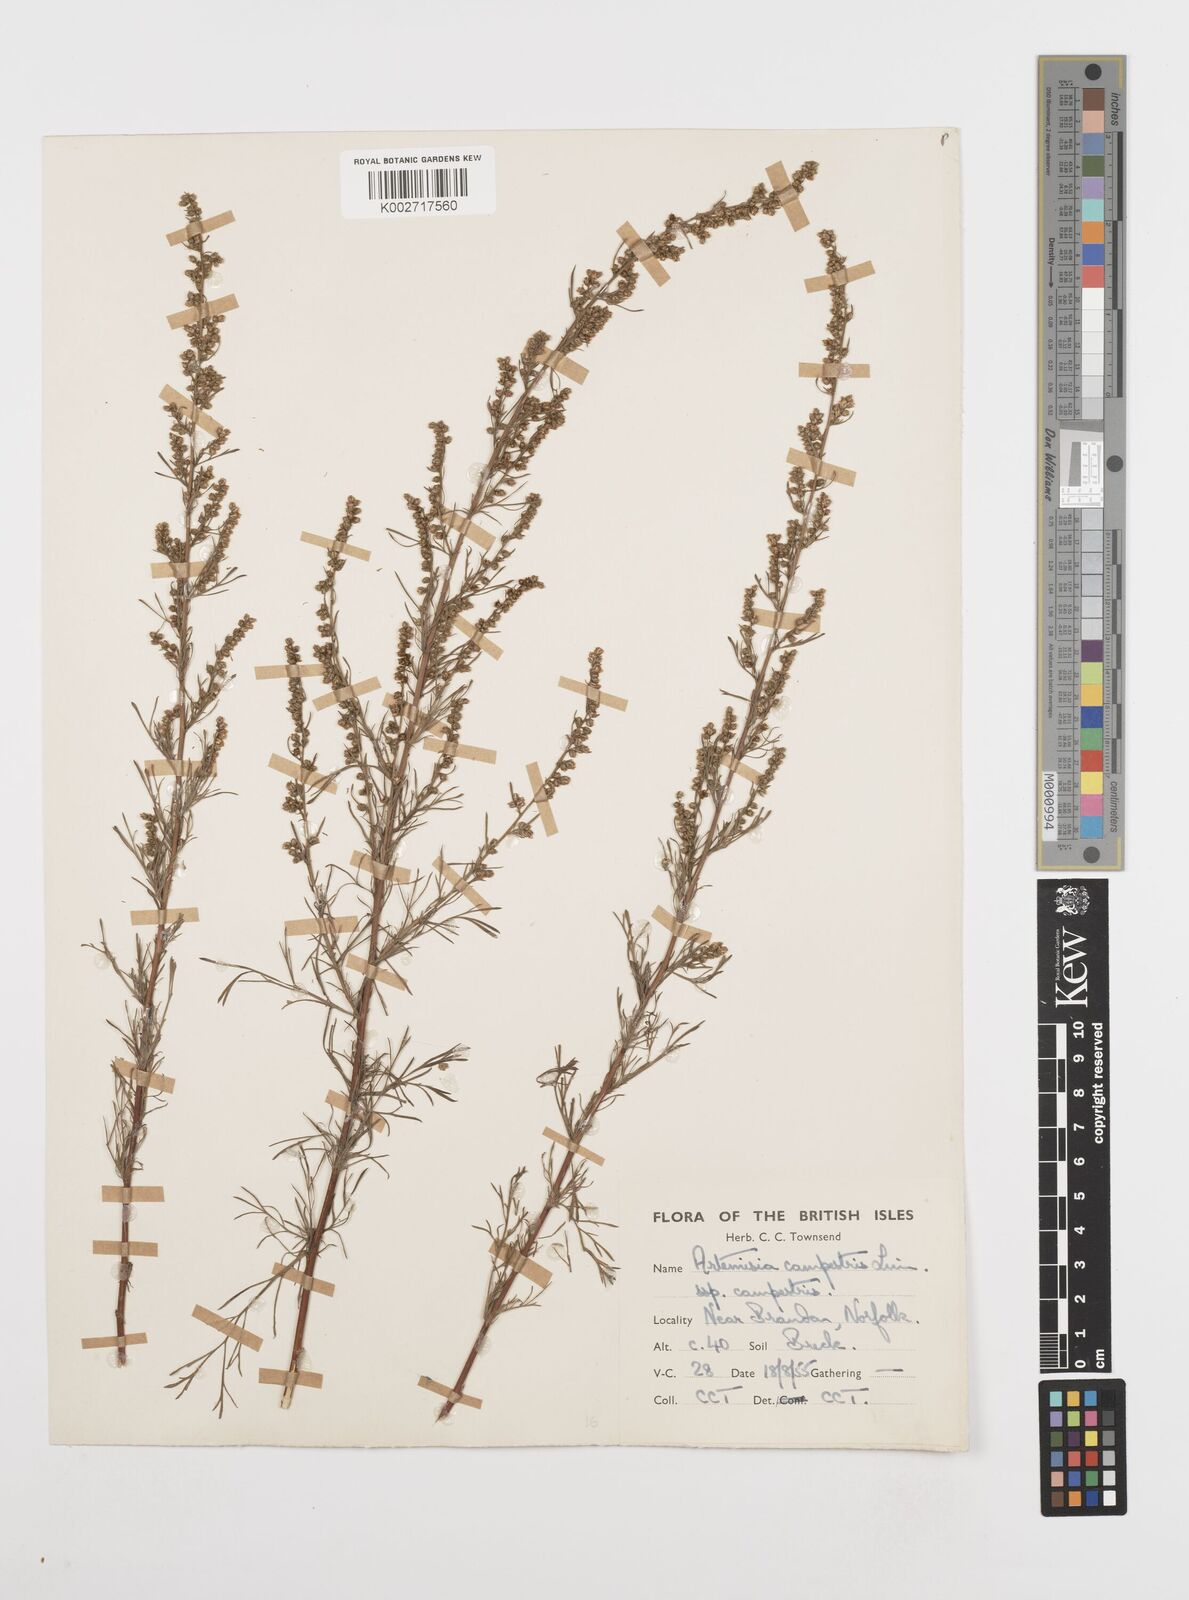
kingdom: Plantae
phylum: Tracheophyta
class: Magnoliopsida
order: Asterales
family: Asteraceae
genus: Artemisia
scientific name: Artemisia campestris
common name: Field wormwood
